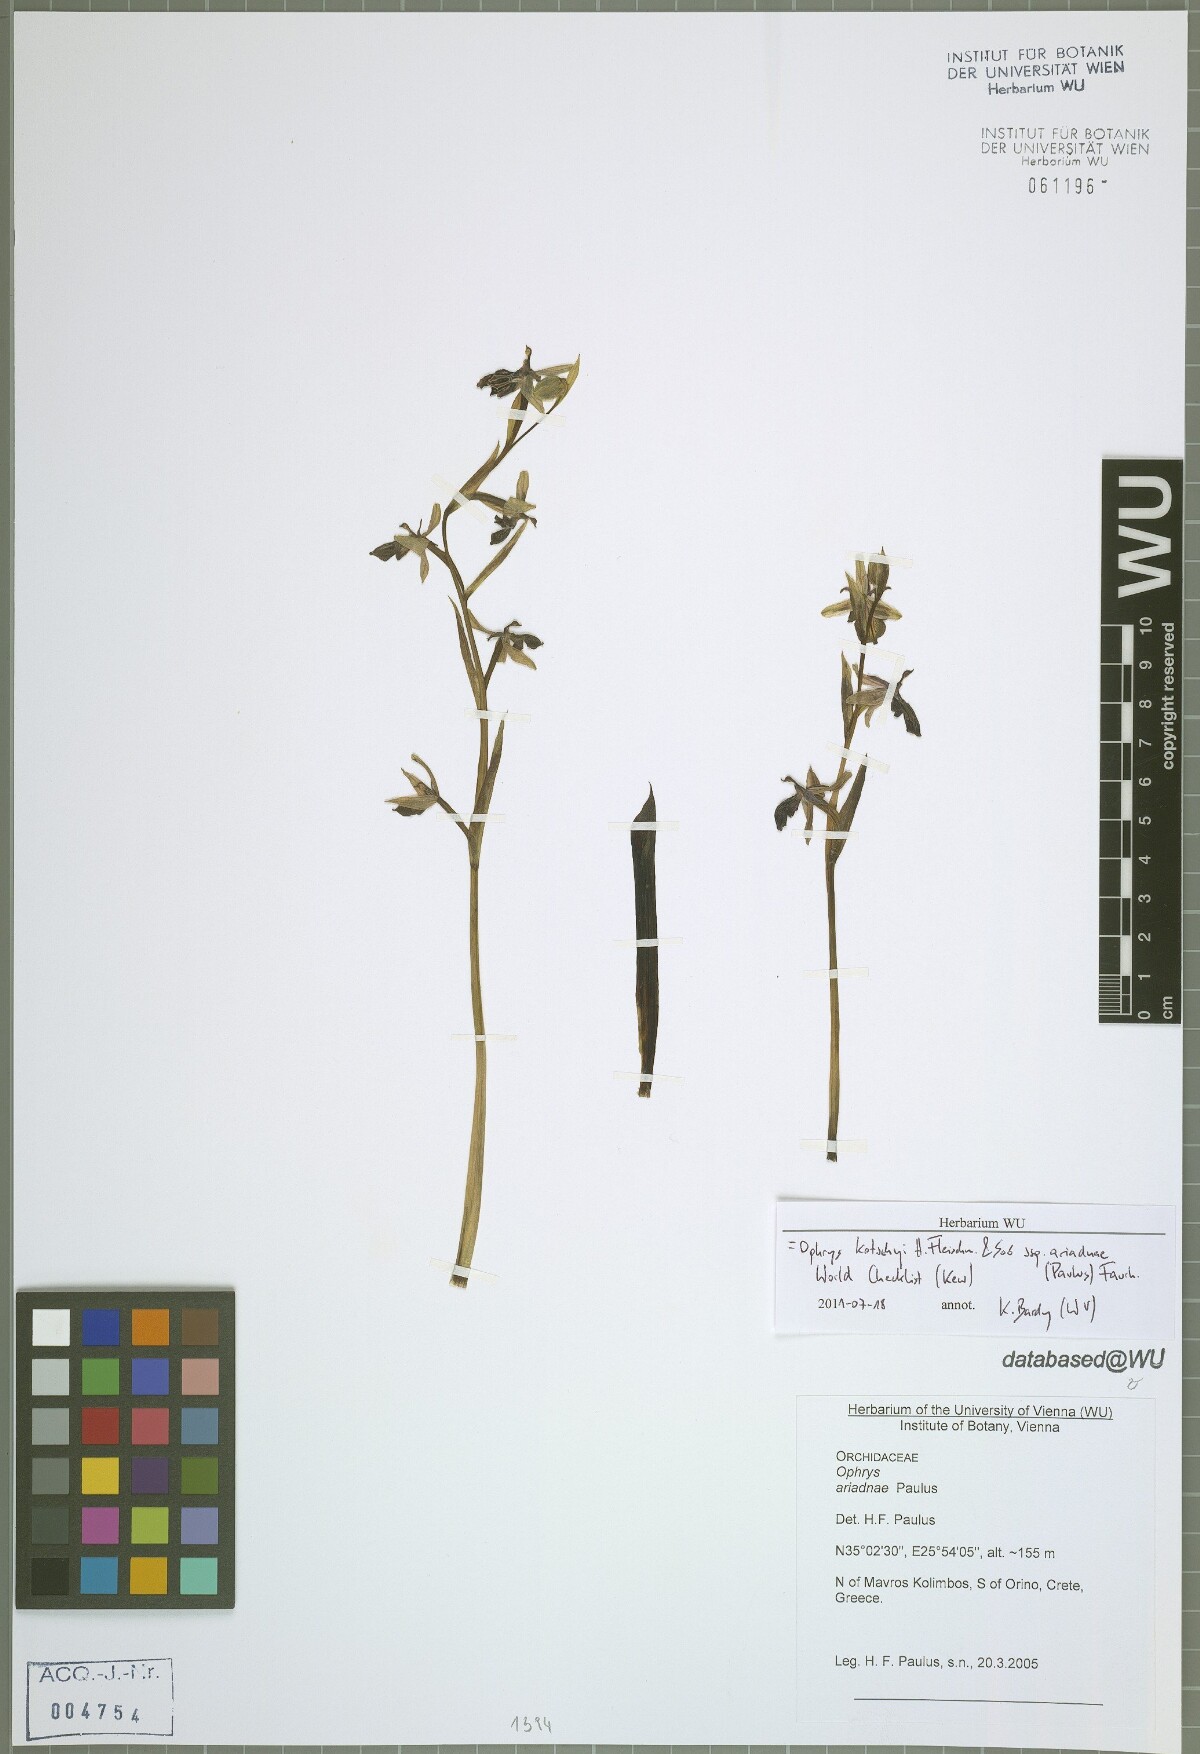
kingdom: Plantae
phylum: Tracheophyta
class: Liliopsida
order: Asparagales
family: Orchidaceae
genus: Ophrys
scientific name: Ophrys cretica
